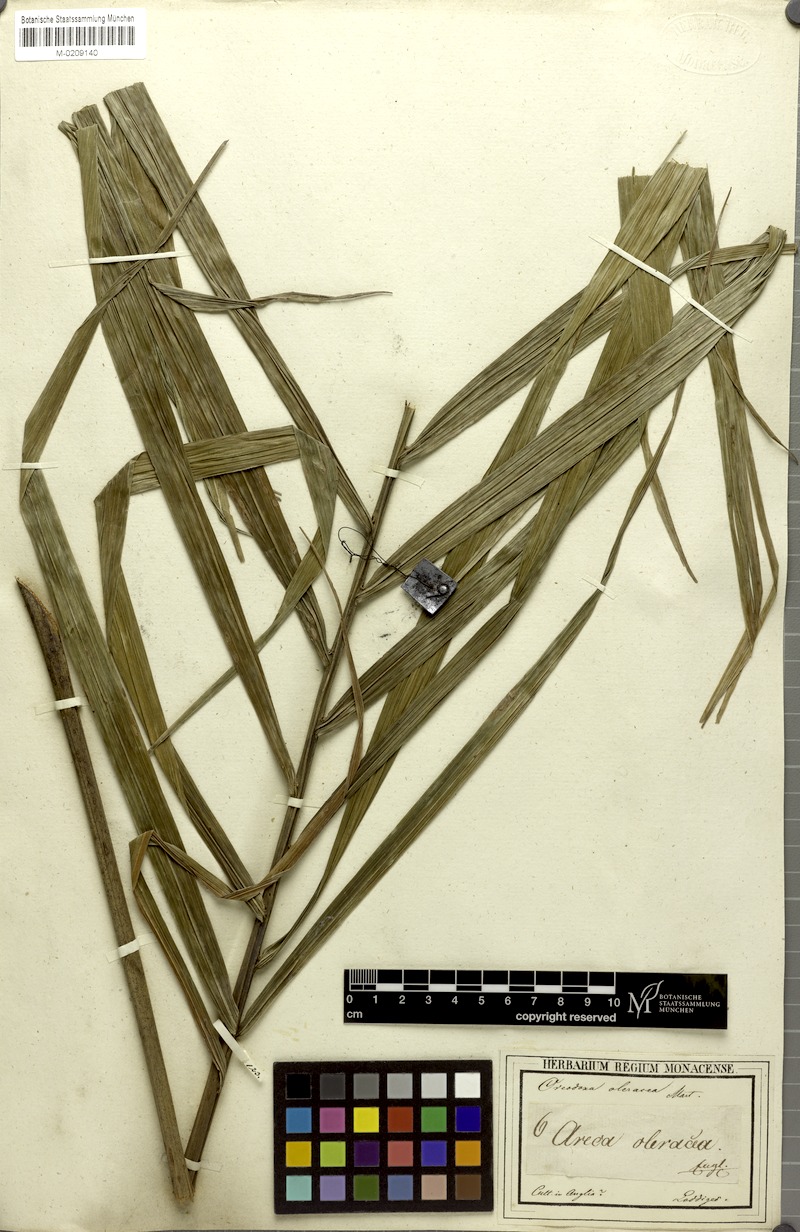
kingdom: Plantae
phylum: Tracheophyta
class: Liliopsida
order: Arecales
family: Arecaceae
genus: Roystonea
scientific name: Roystonea oleracea
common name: South american royal palm
